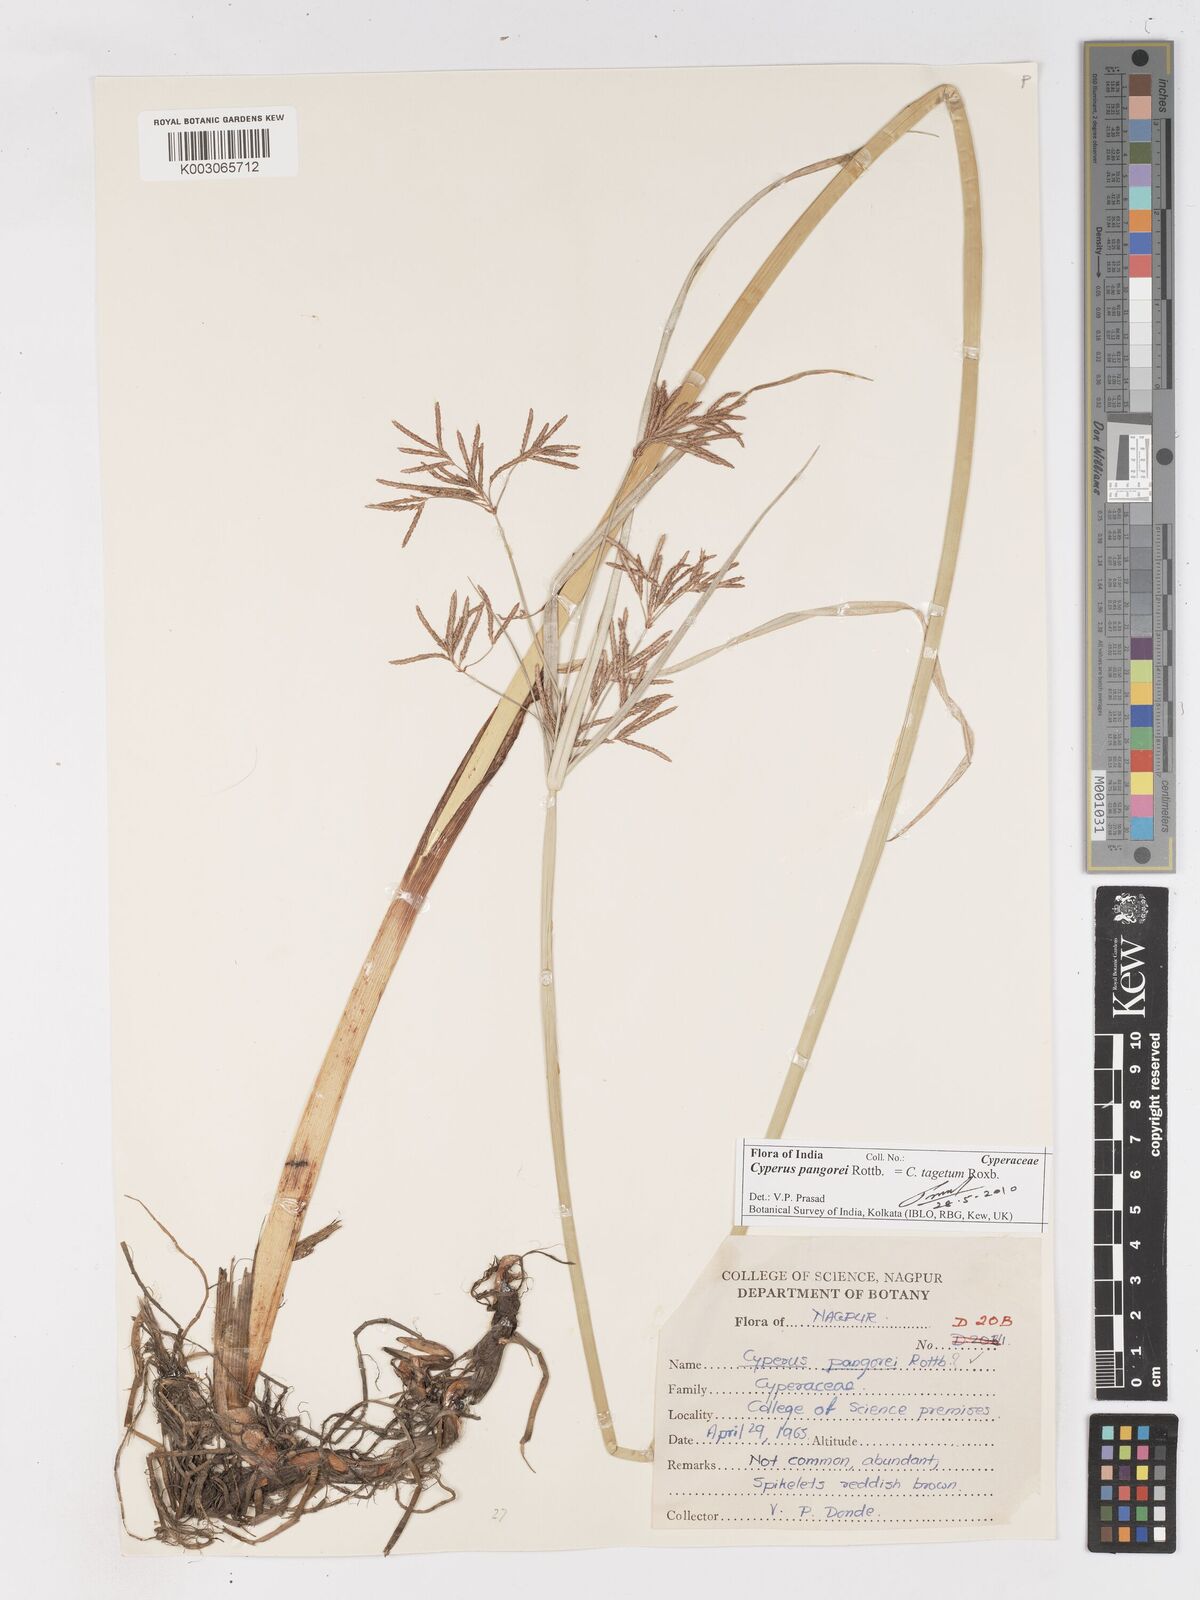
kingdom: Plantae
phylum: Tracheophyta
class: Liliopsida
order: Poales
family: Cyperaceae
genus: Cyperus
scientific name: Cyperus pangorei
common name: Mat sedge
